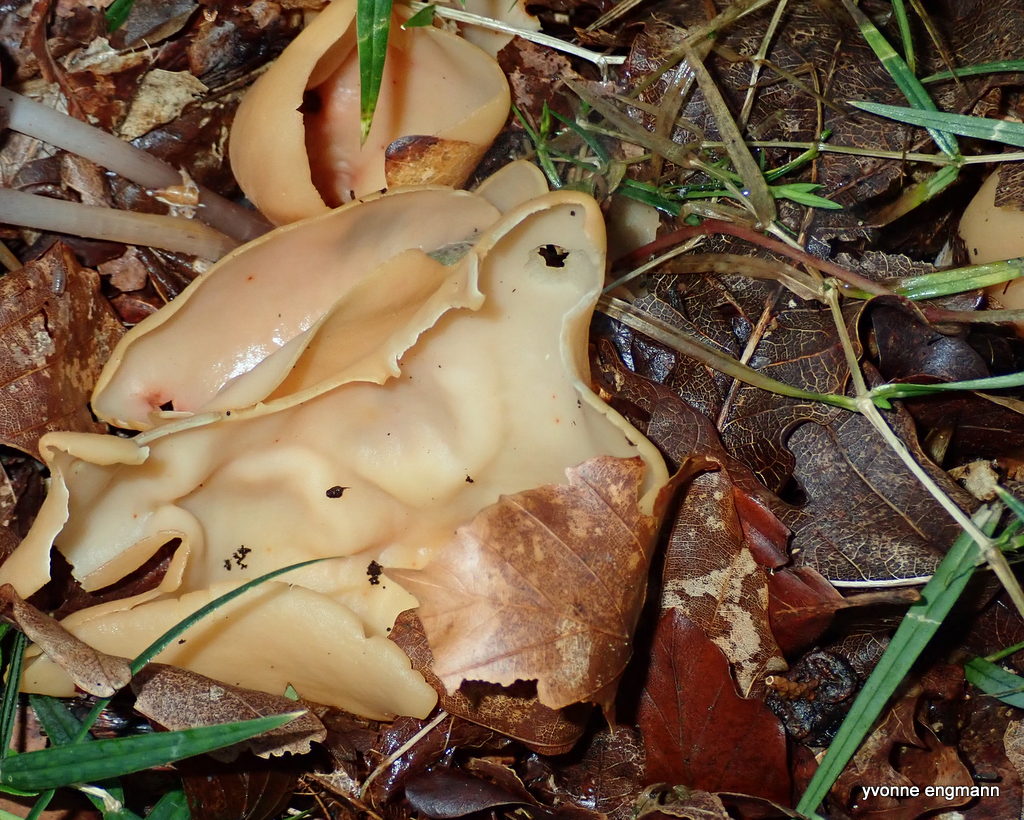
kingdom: Fungi
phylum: Ascomycota
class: Pezizomycetes
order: Pezizales
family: Otideaceae
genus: Otidea
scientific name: Otidea onotica
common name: æsel-ørebæger
